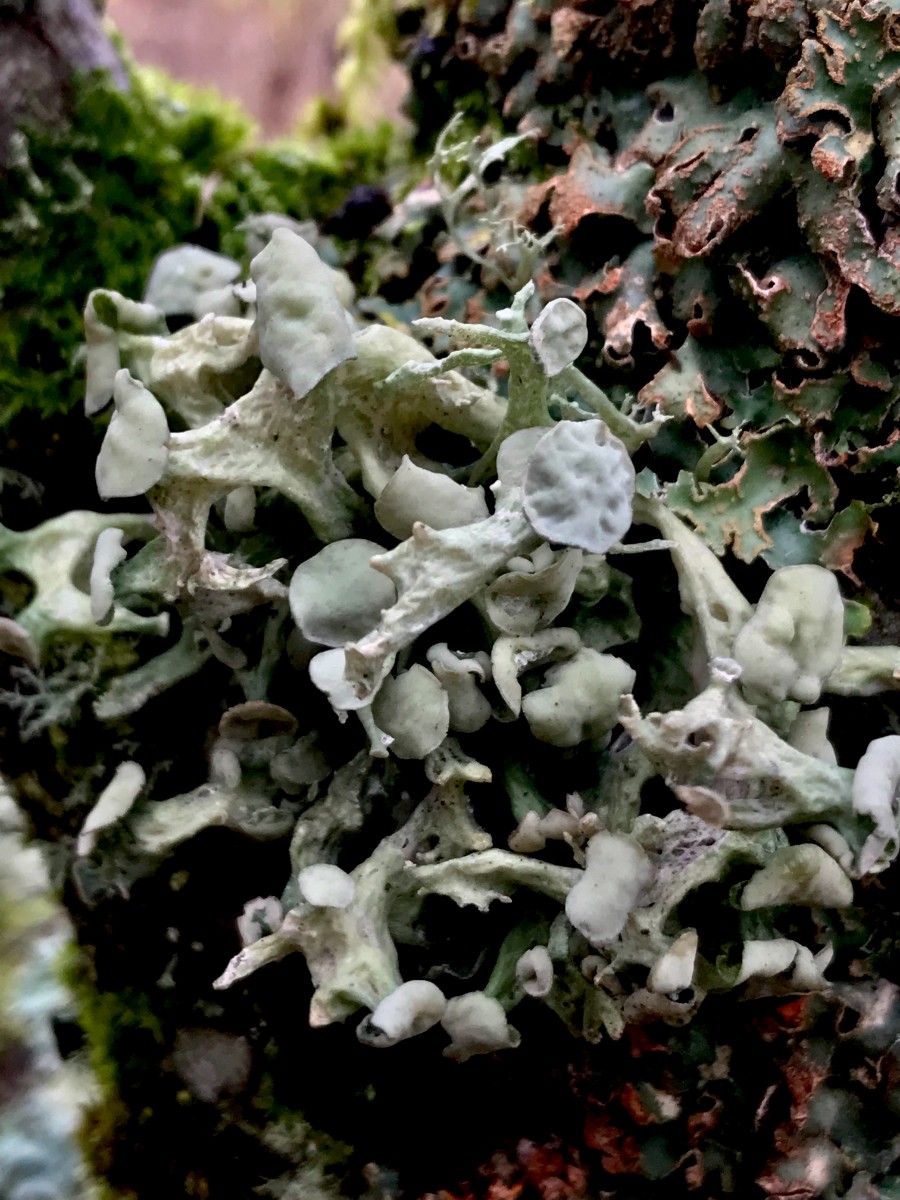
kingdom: Fungi
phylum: Ascomycota
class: Lecanoromycetes
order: Lecanorales
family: Ramalinaceae
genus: Ramalina
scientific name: Ramalina fastigiata
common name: tue-grenlav
